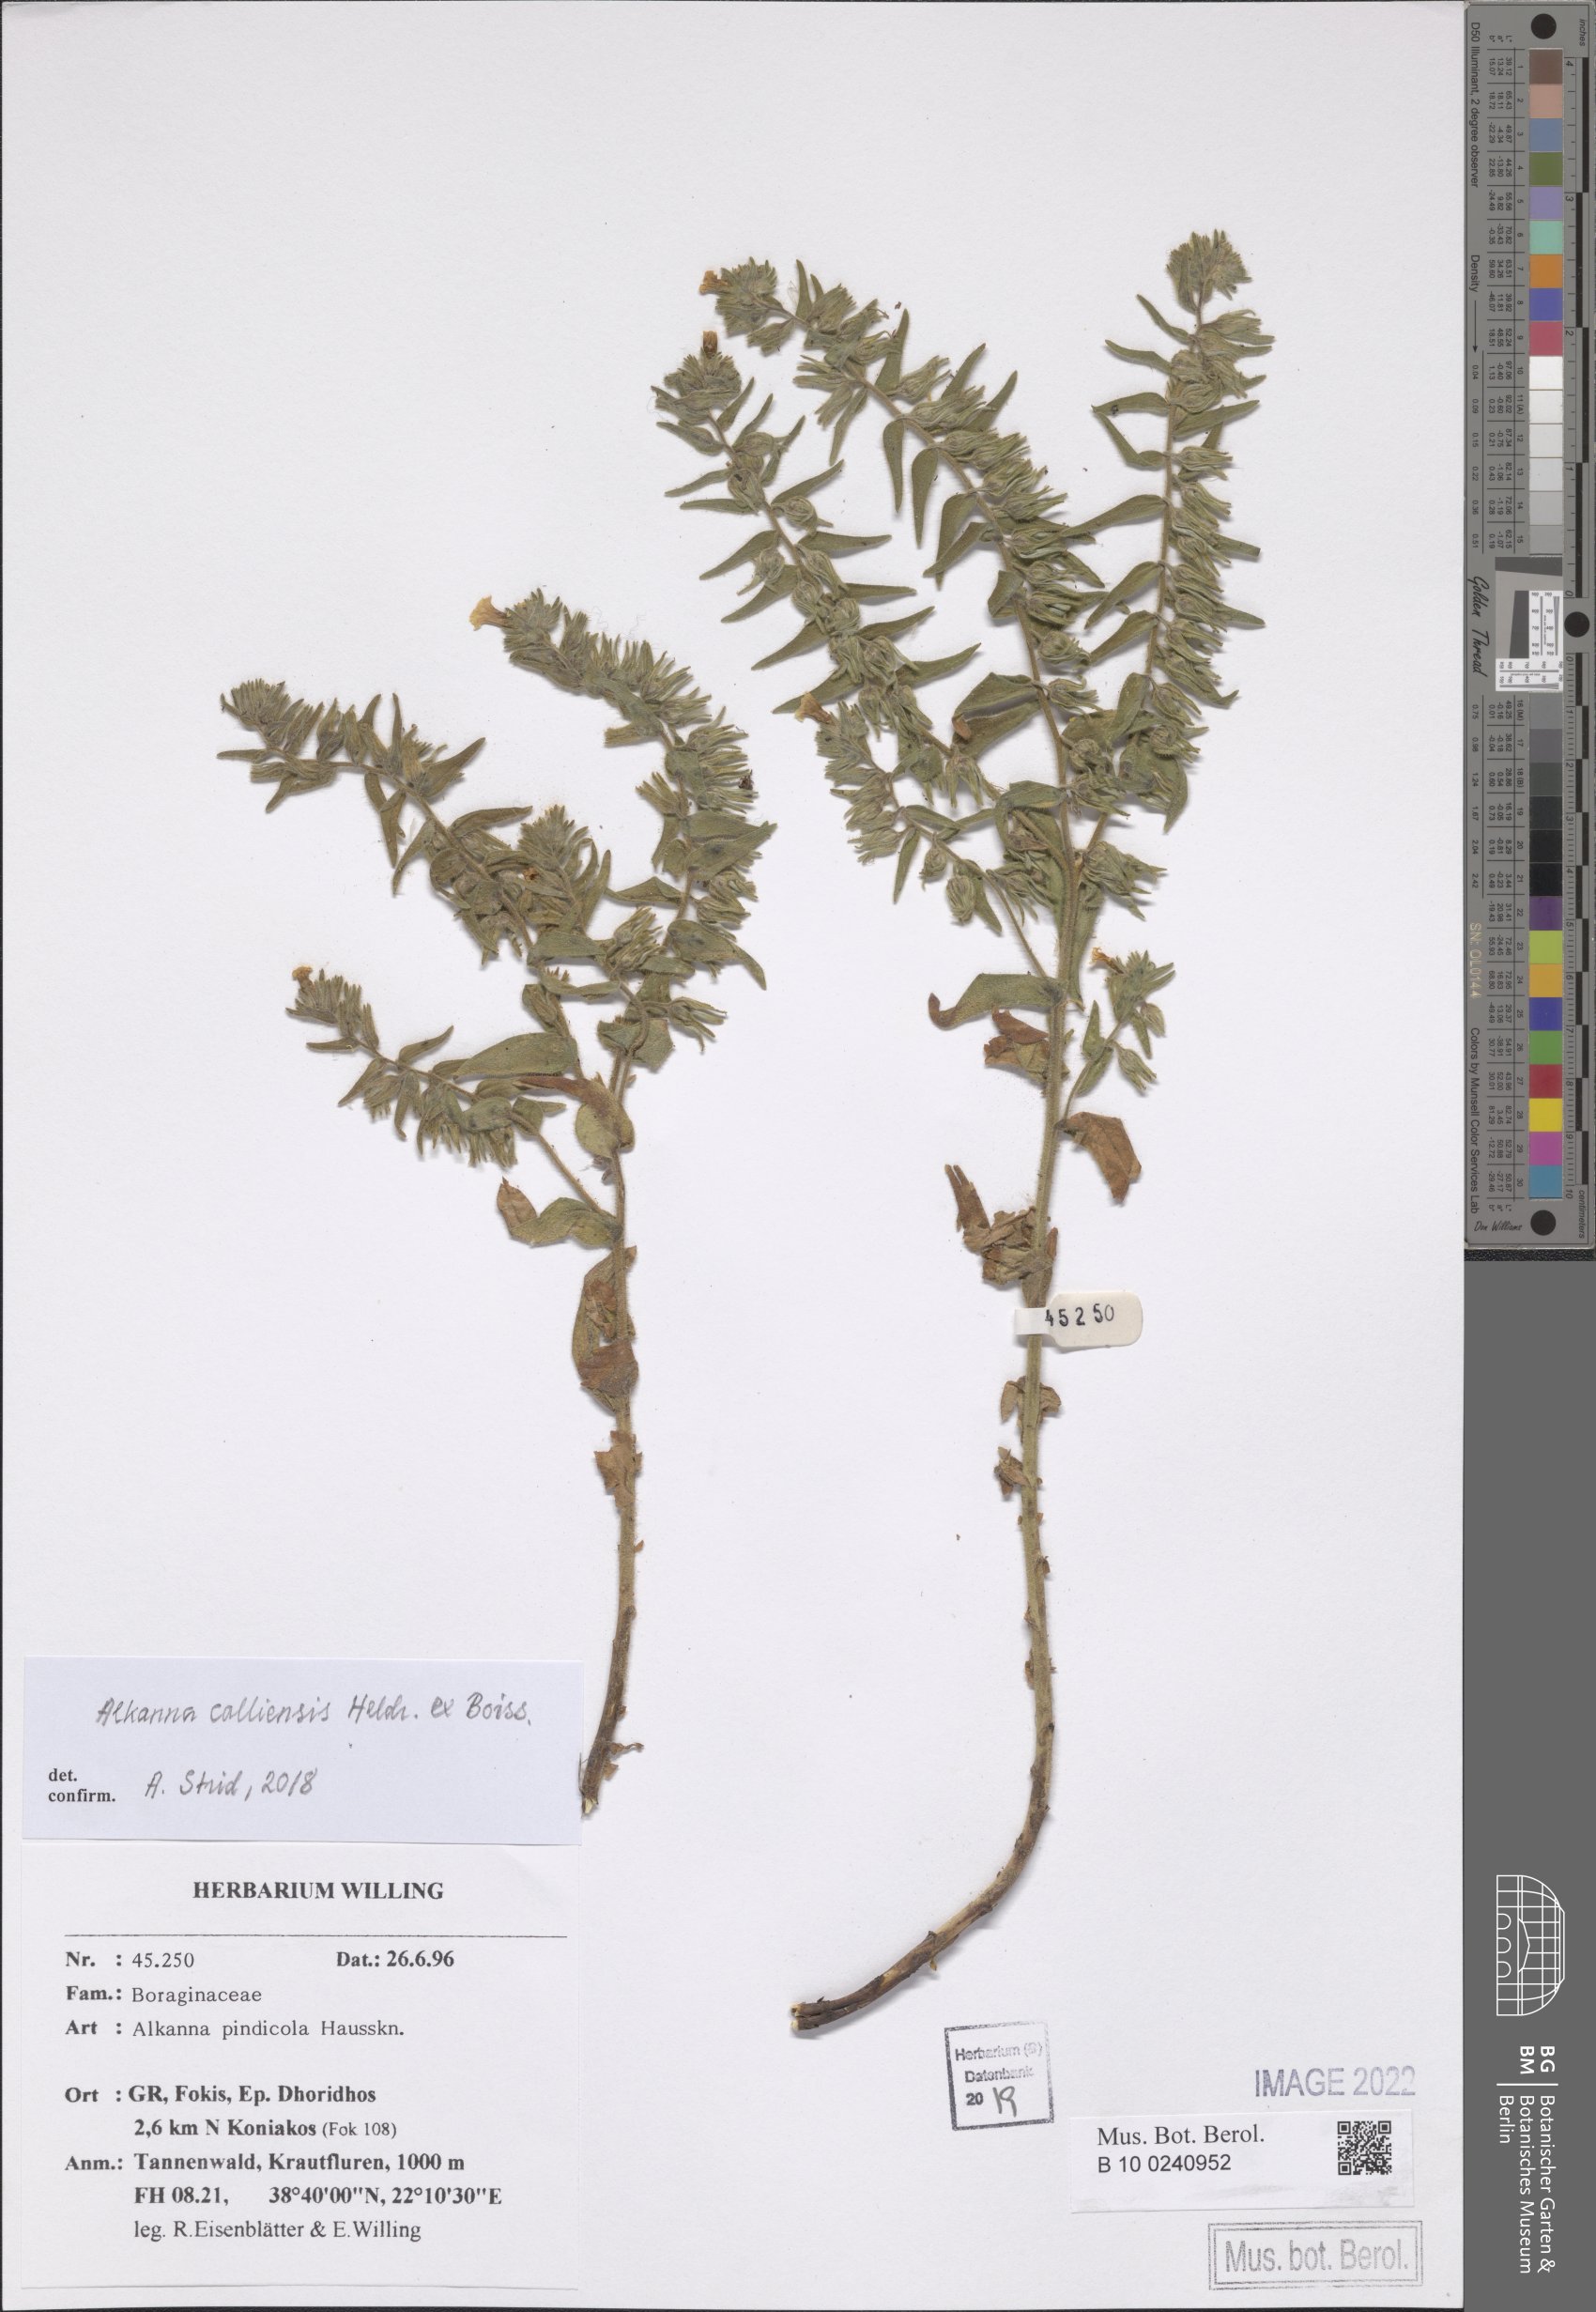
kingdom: Plantae
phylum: Tracheophyta
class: Magnoliopsida
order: Boraginales
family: Boraginaceae
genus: Alkanna
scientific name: Alkanna calliensis
